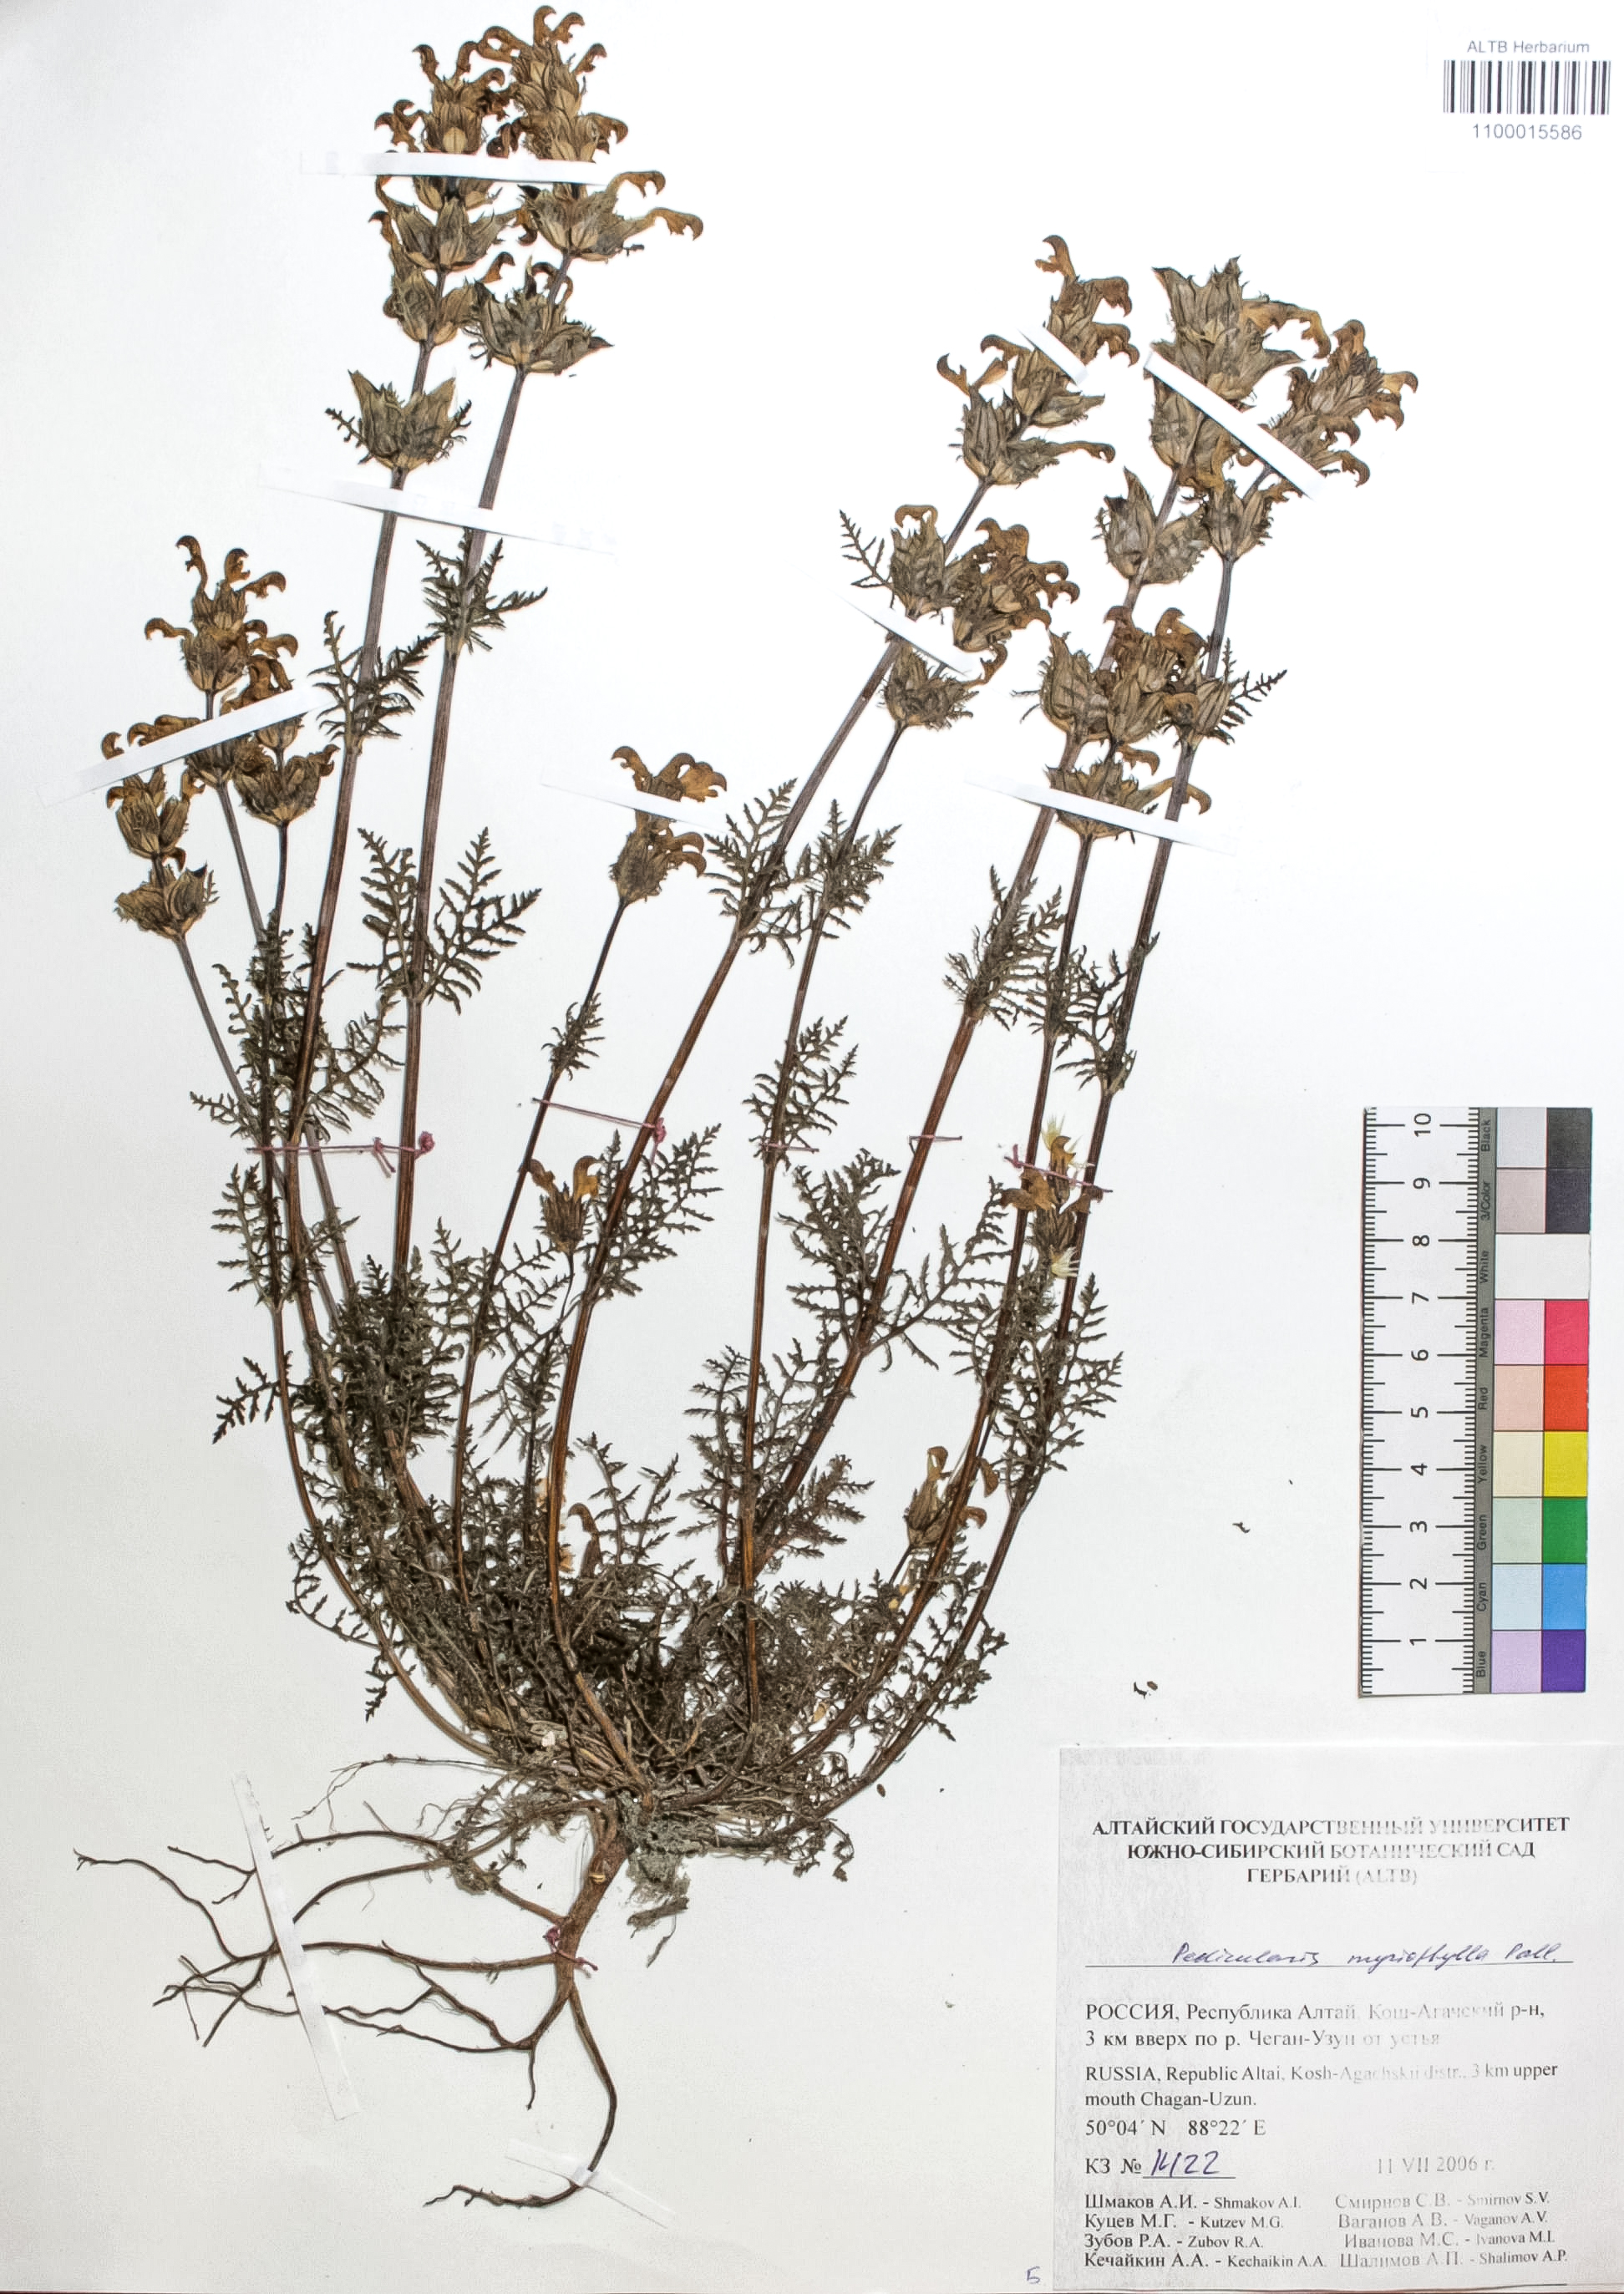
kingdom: Plantae
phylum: Tracheophyta
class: Magnoliopsida
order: Lamiales
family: Orobanchaceae
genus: Pedicularis
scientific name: Pedicularis myriophylla
